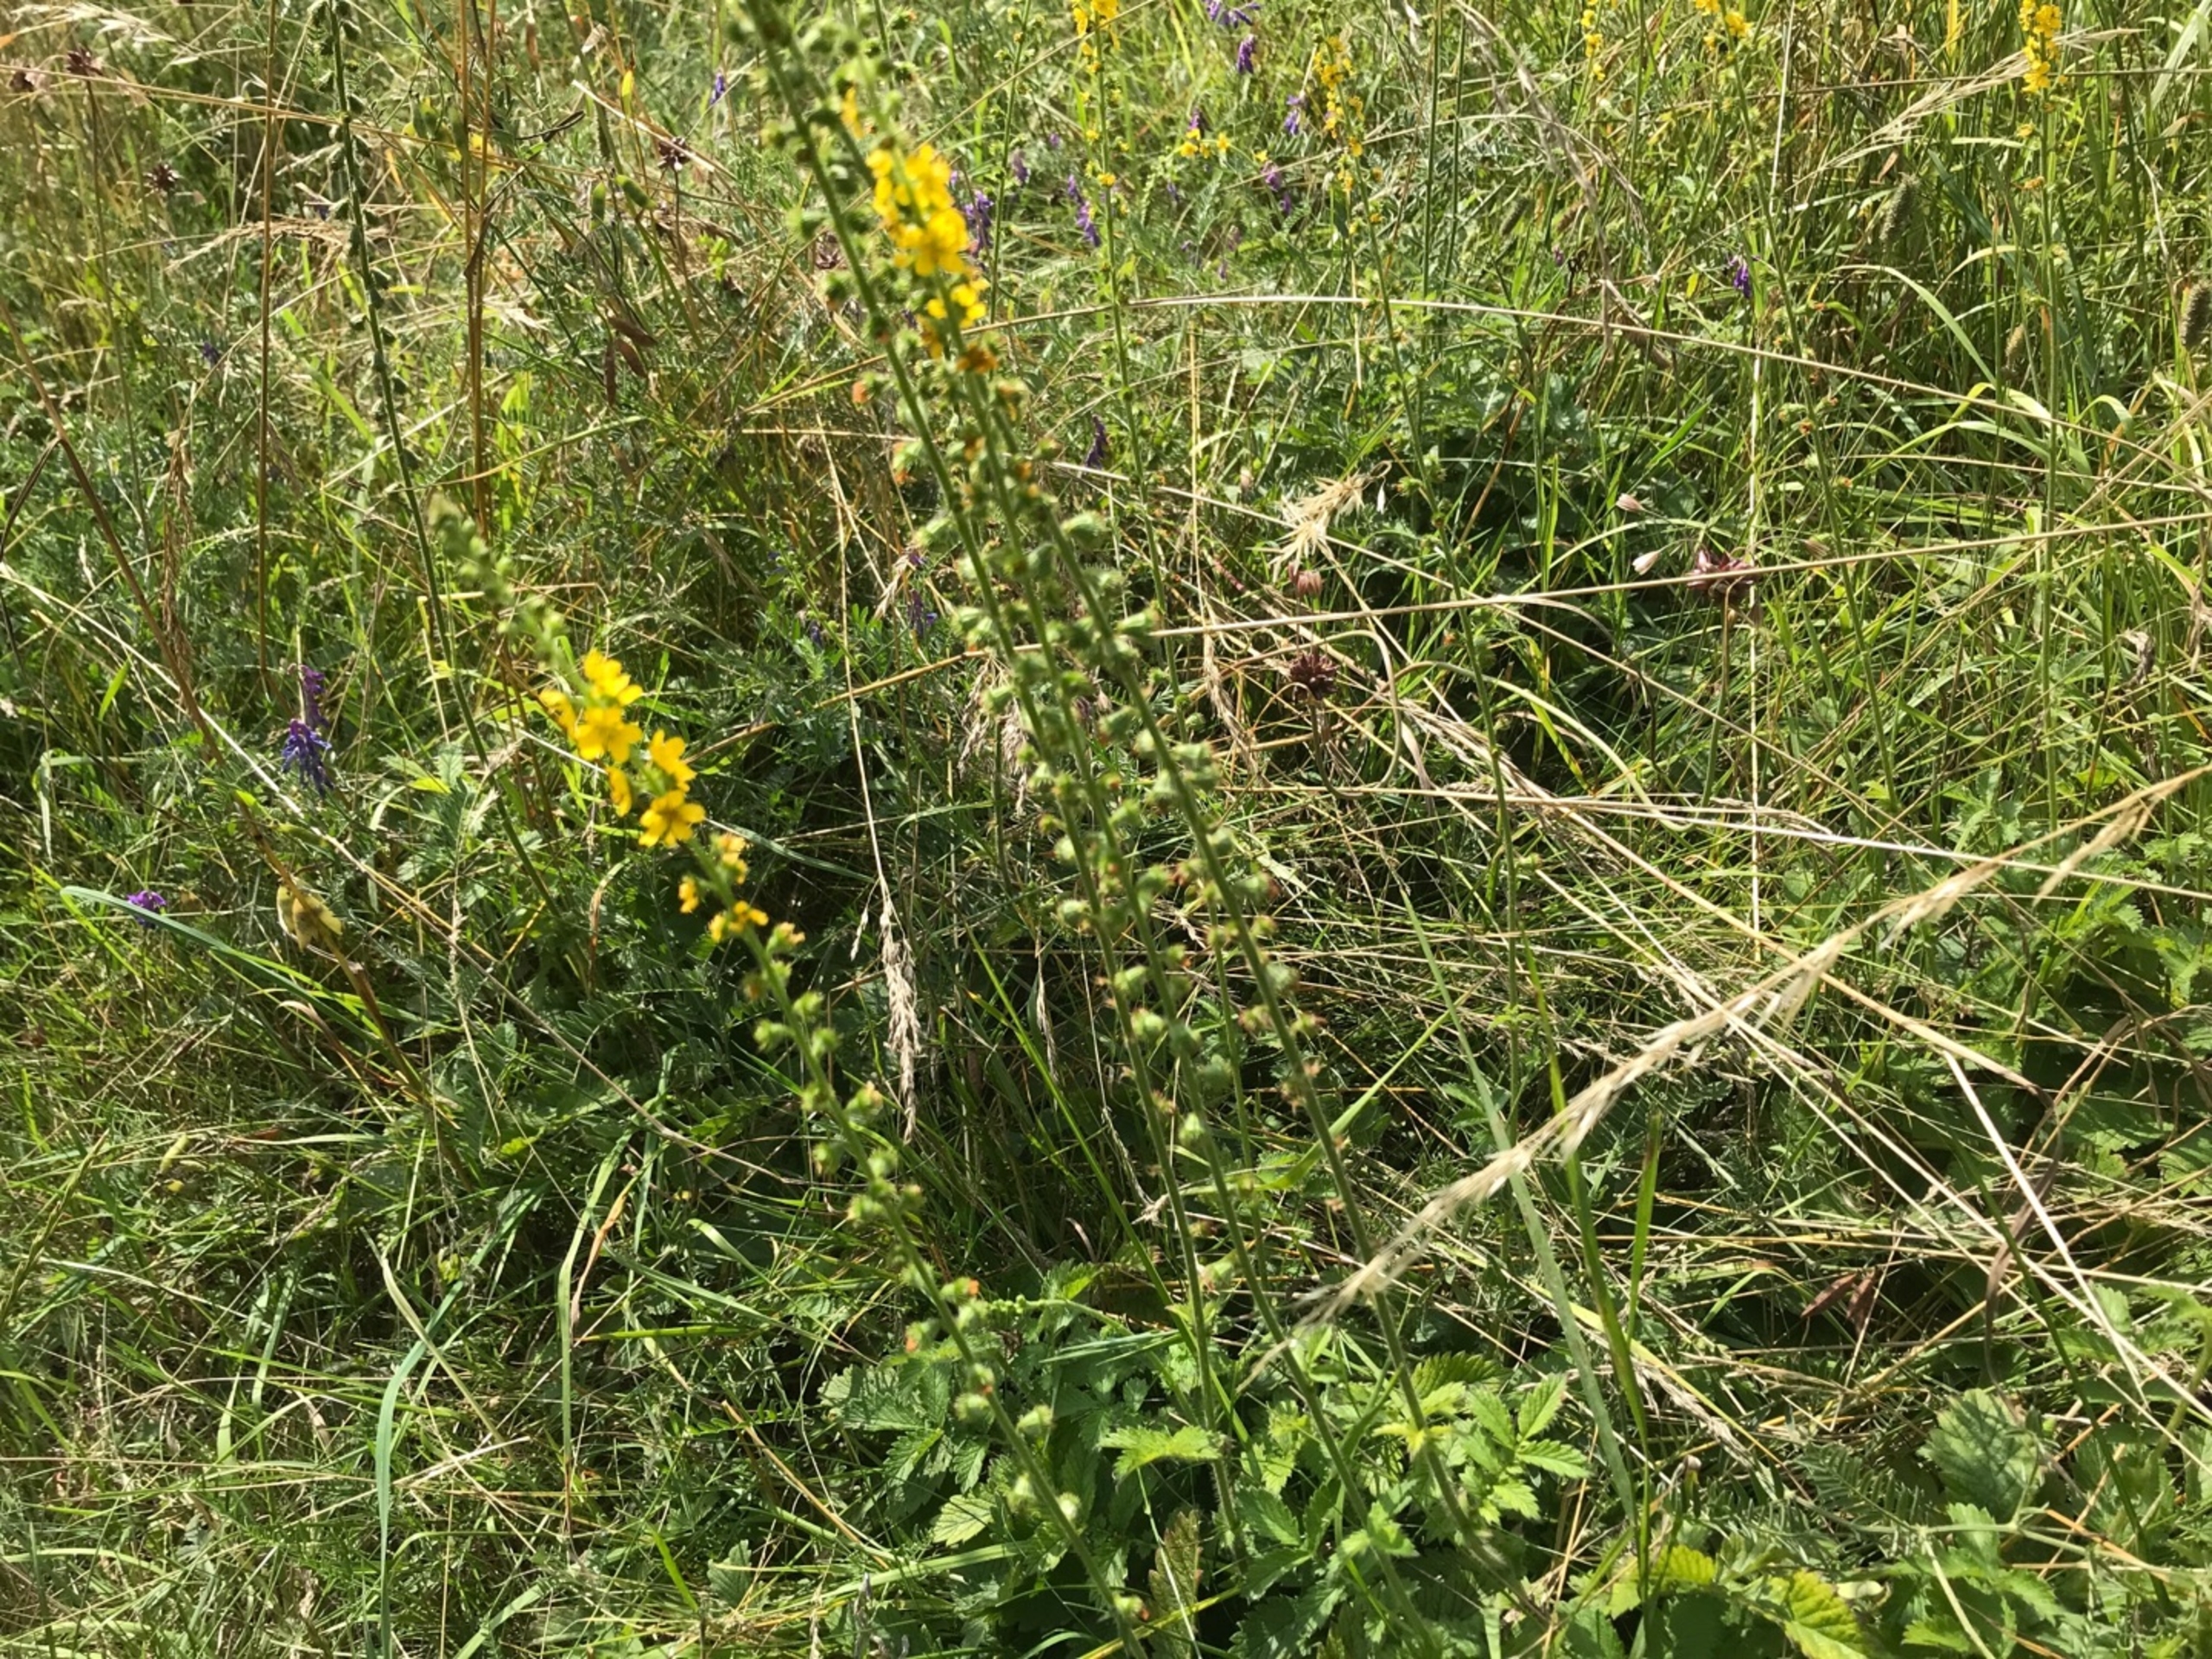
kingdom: Plantae
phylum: Tracheophyta
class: Magnoliopsida
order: Rosales
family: Rosaceae
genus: Agrimonia
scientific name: Agrimonia eupatoria
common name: Almindelig agermåne
